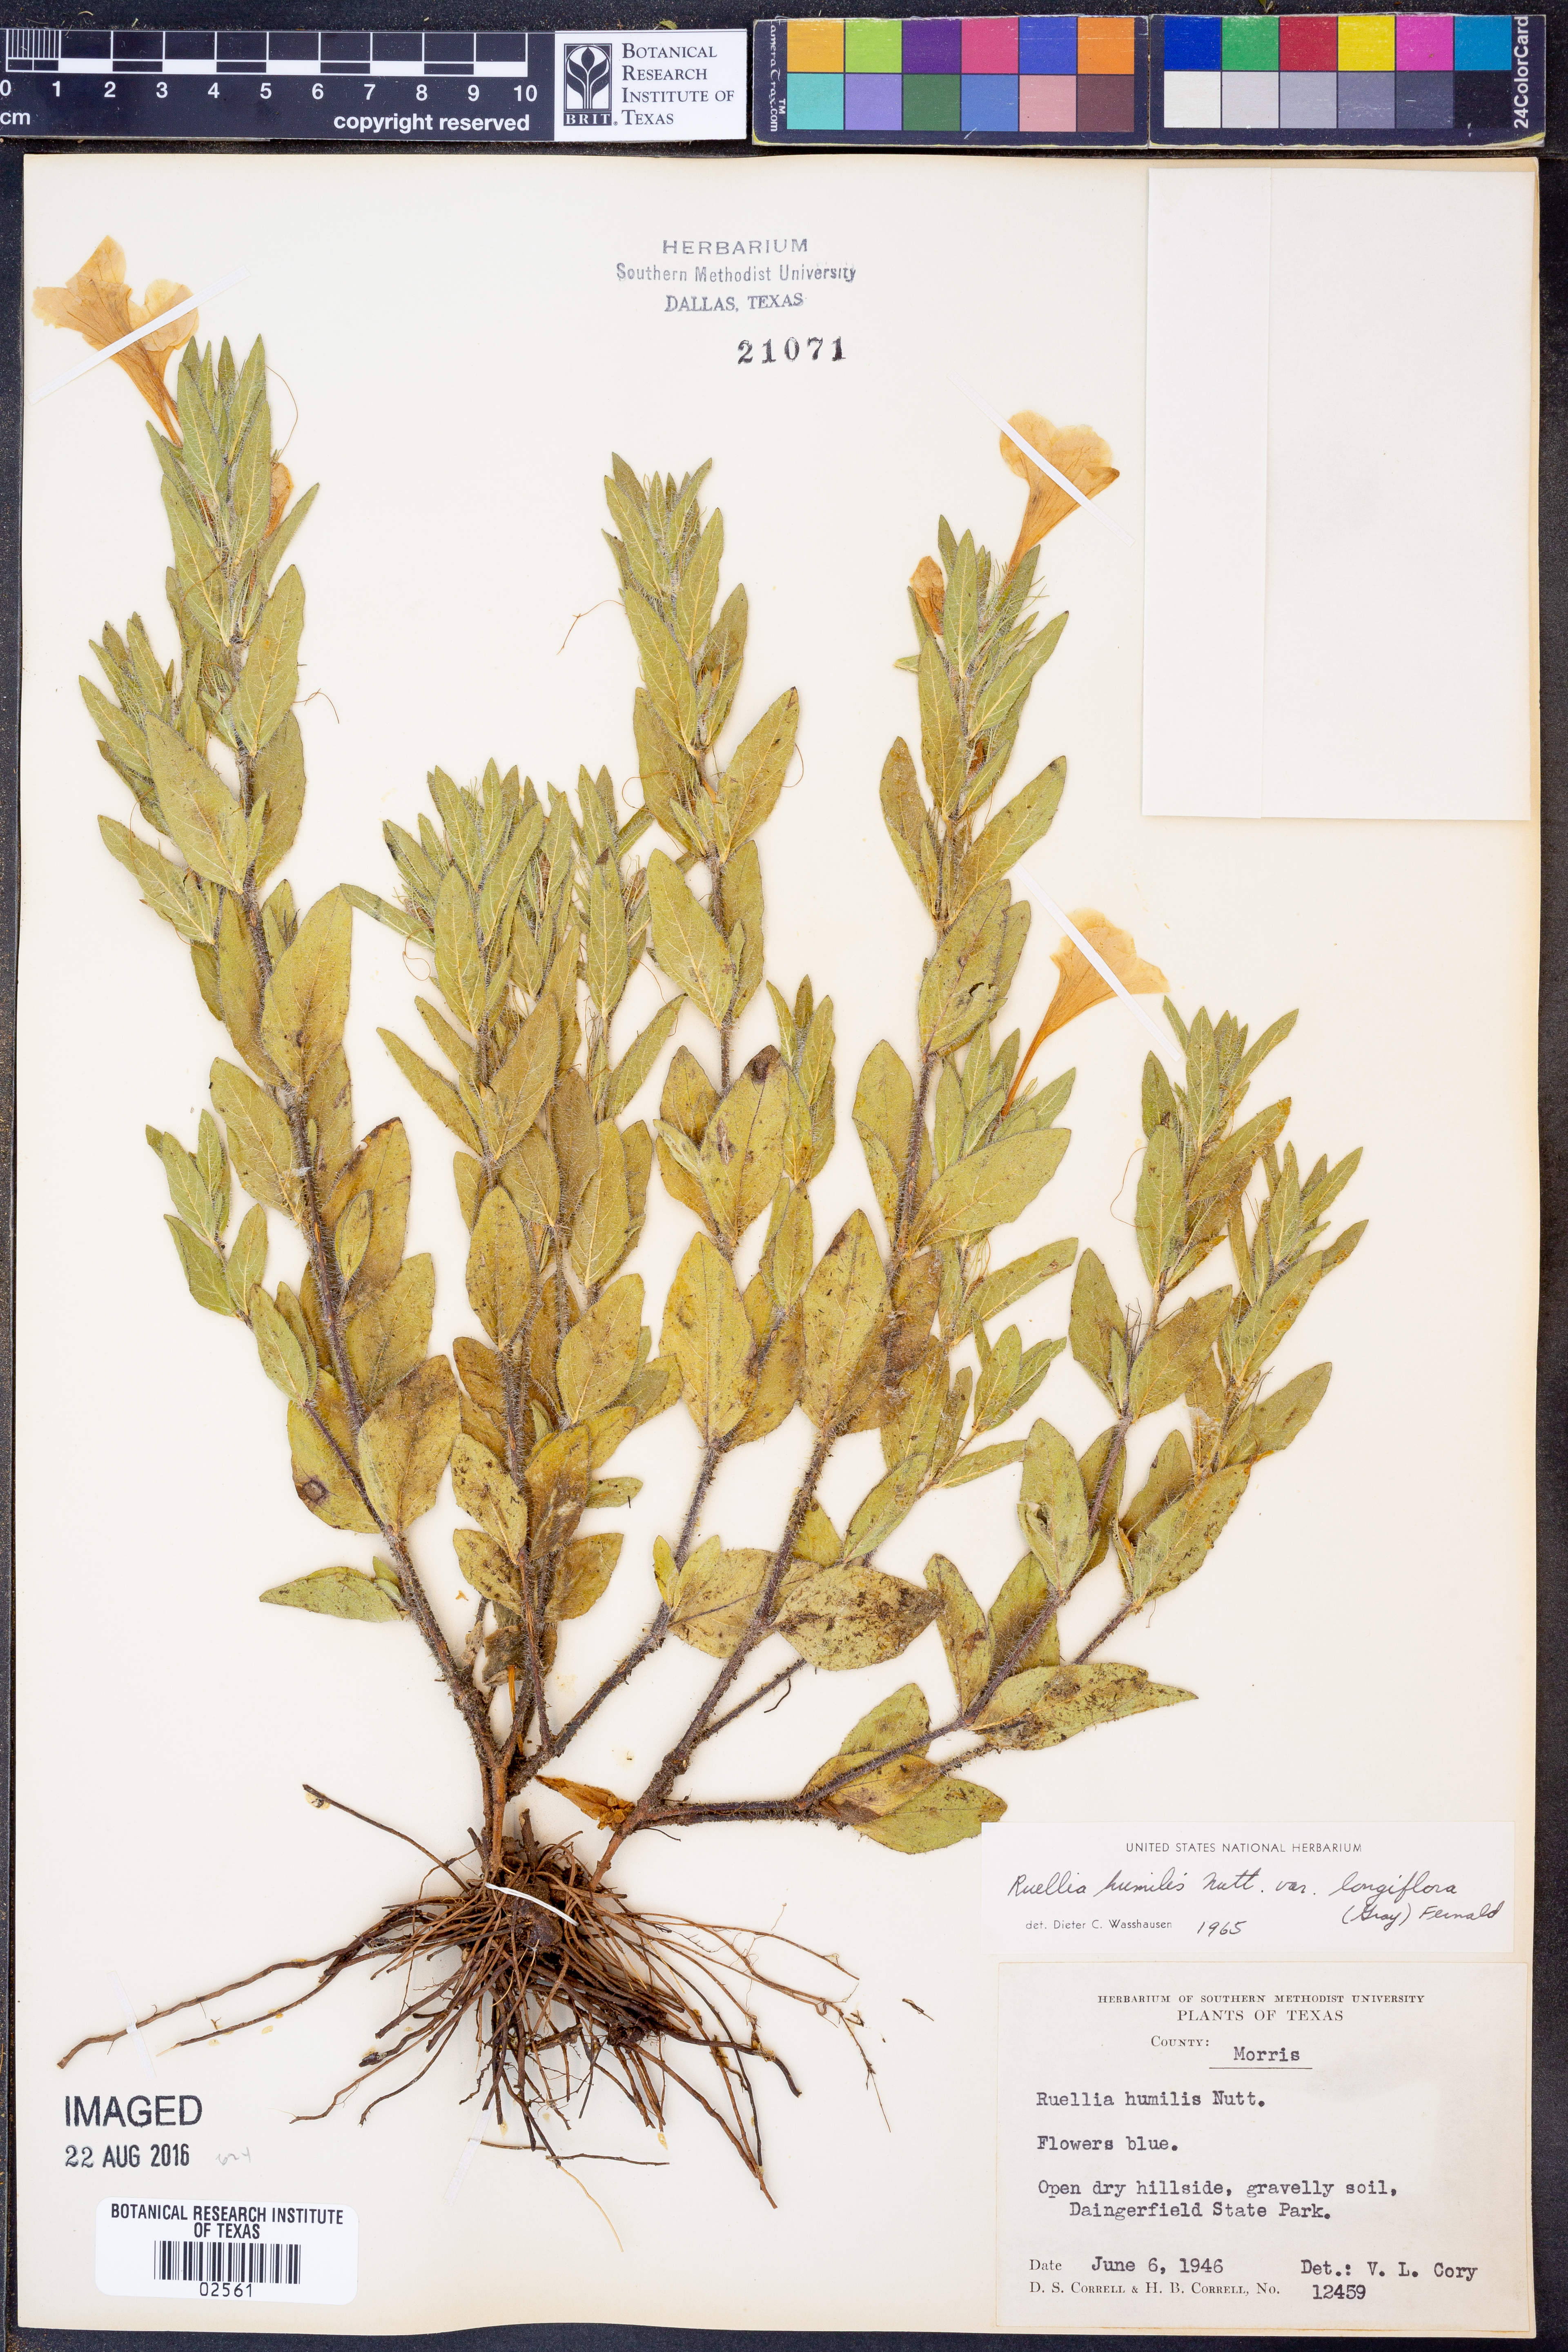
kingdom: Plantae
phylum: Tracheophyta
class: Magnoliopsida
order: Lamiales
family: Acanthaceae
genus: Ruellia
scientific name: Ruellia humilis
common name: Fringe-leaf ruellia
